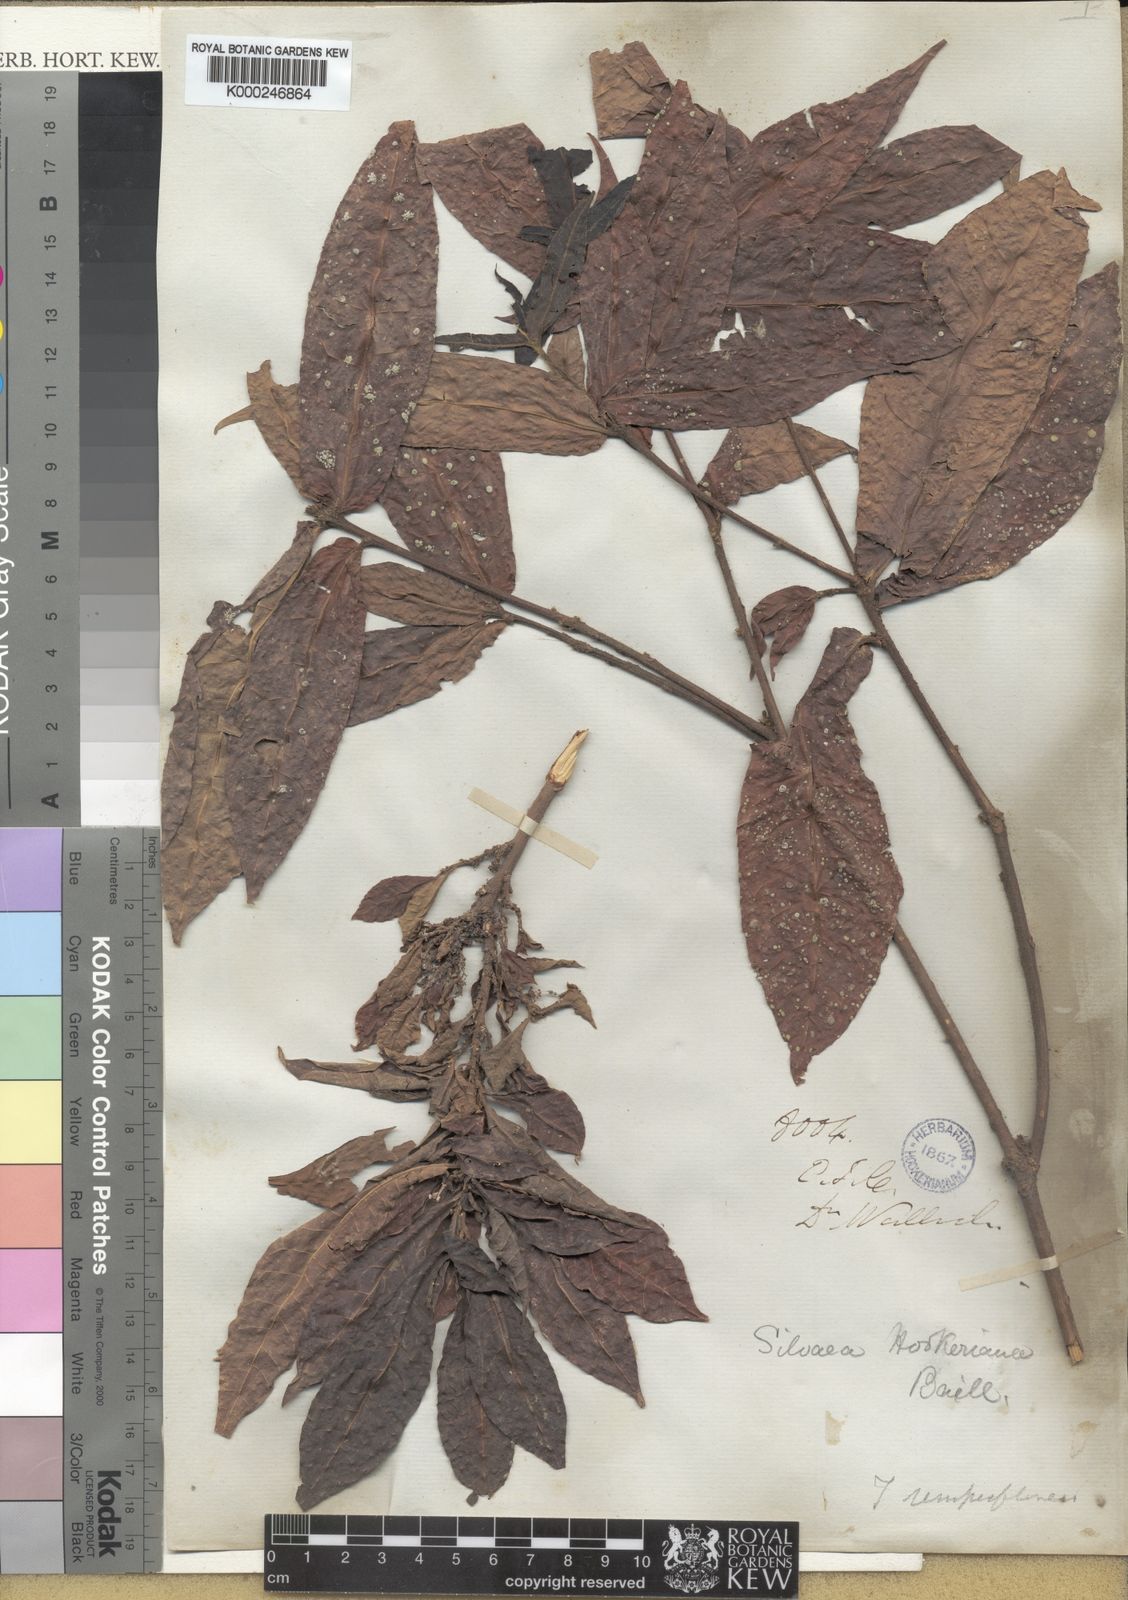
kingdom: Plantae
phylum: Tracheophyta
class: Magnoliopsida
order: Malpighiales
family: Euphorbiaceae
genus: Trigonostemon
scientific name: Trigonostemon
